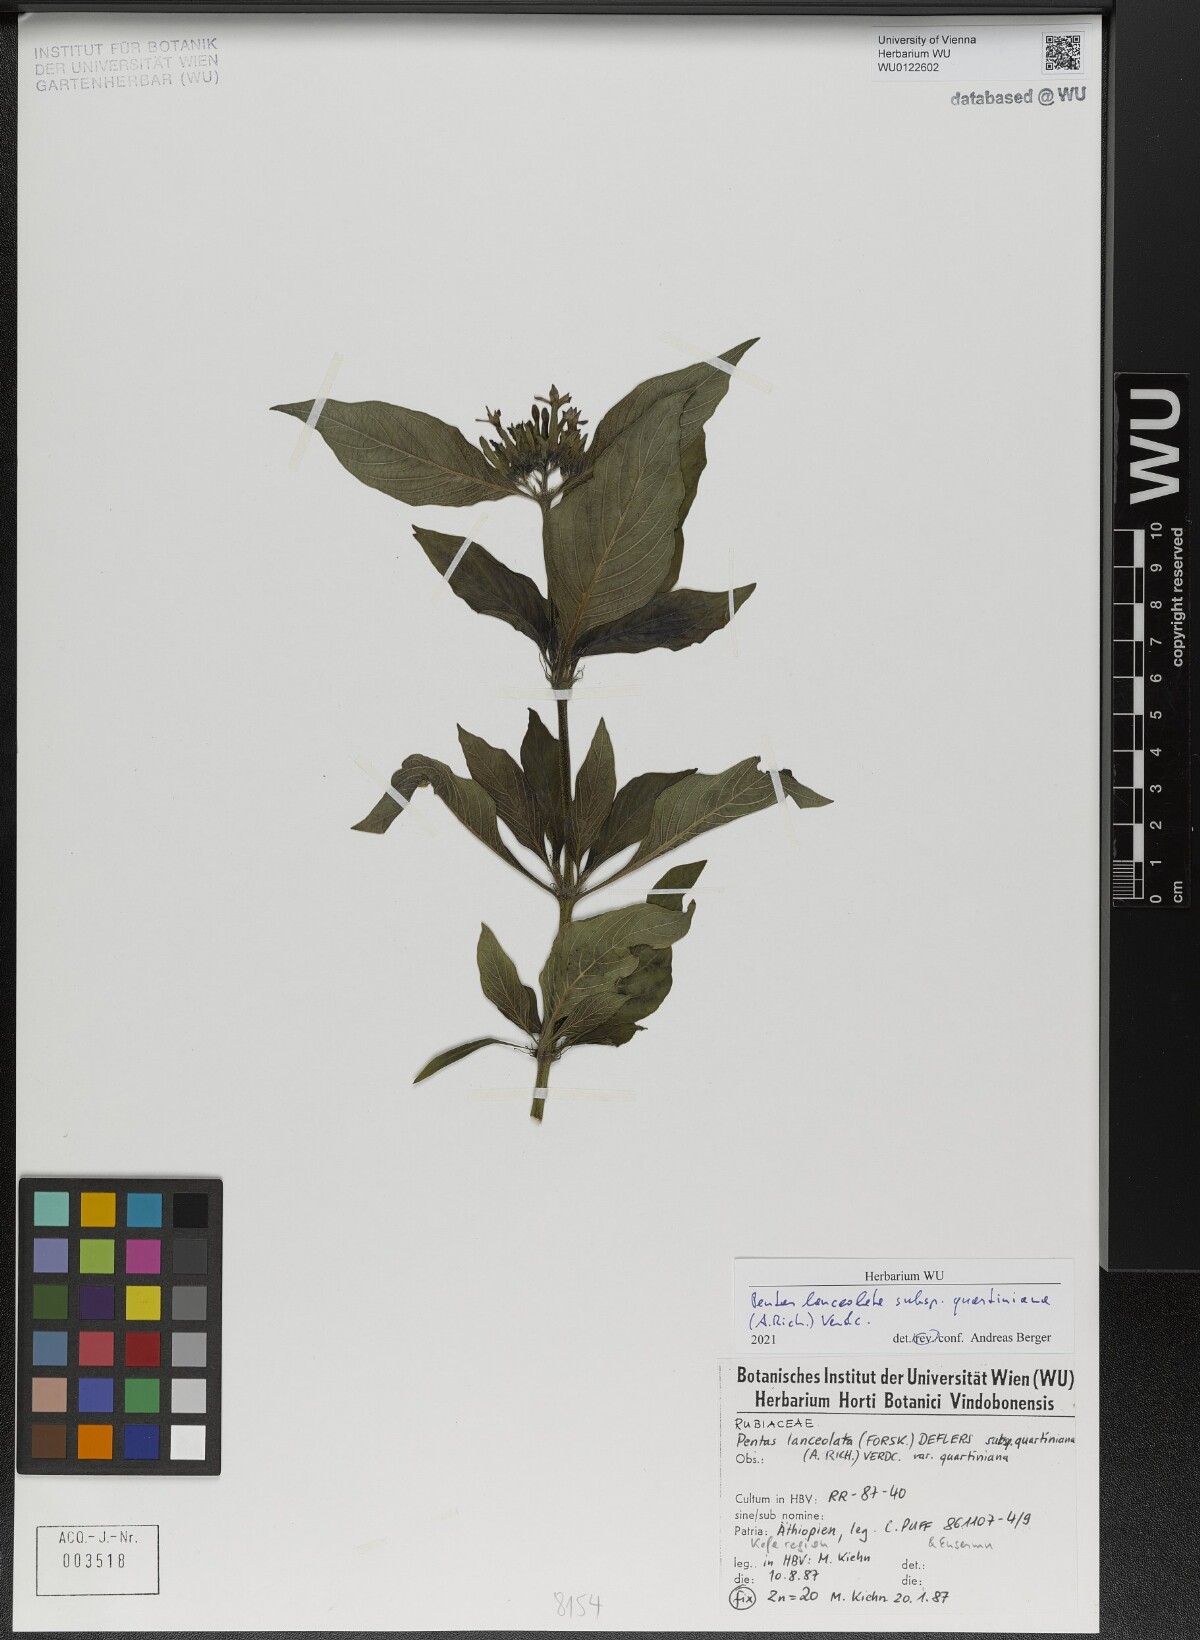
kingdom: Plantae
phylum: Tracheophyta
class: Magnoliopsida
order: Gentianales
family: Rubiaceae
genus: Pentas
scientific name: Pentas lanceolata
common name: Egyptian starcluster
